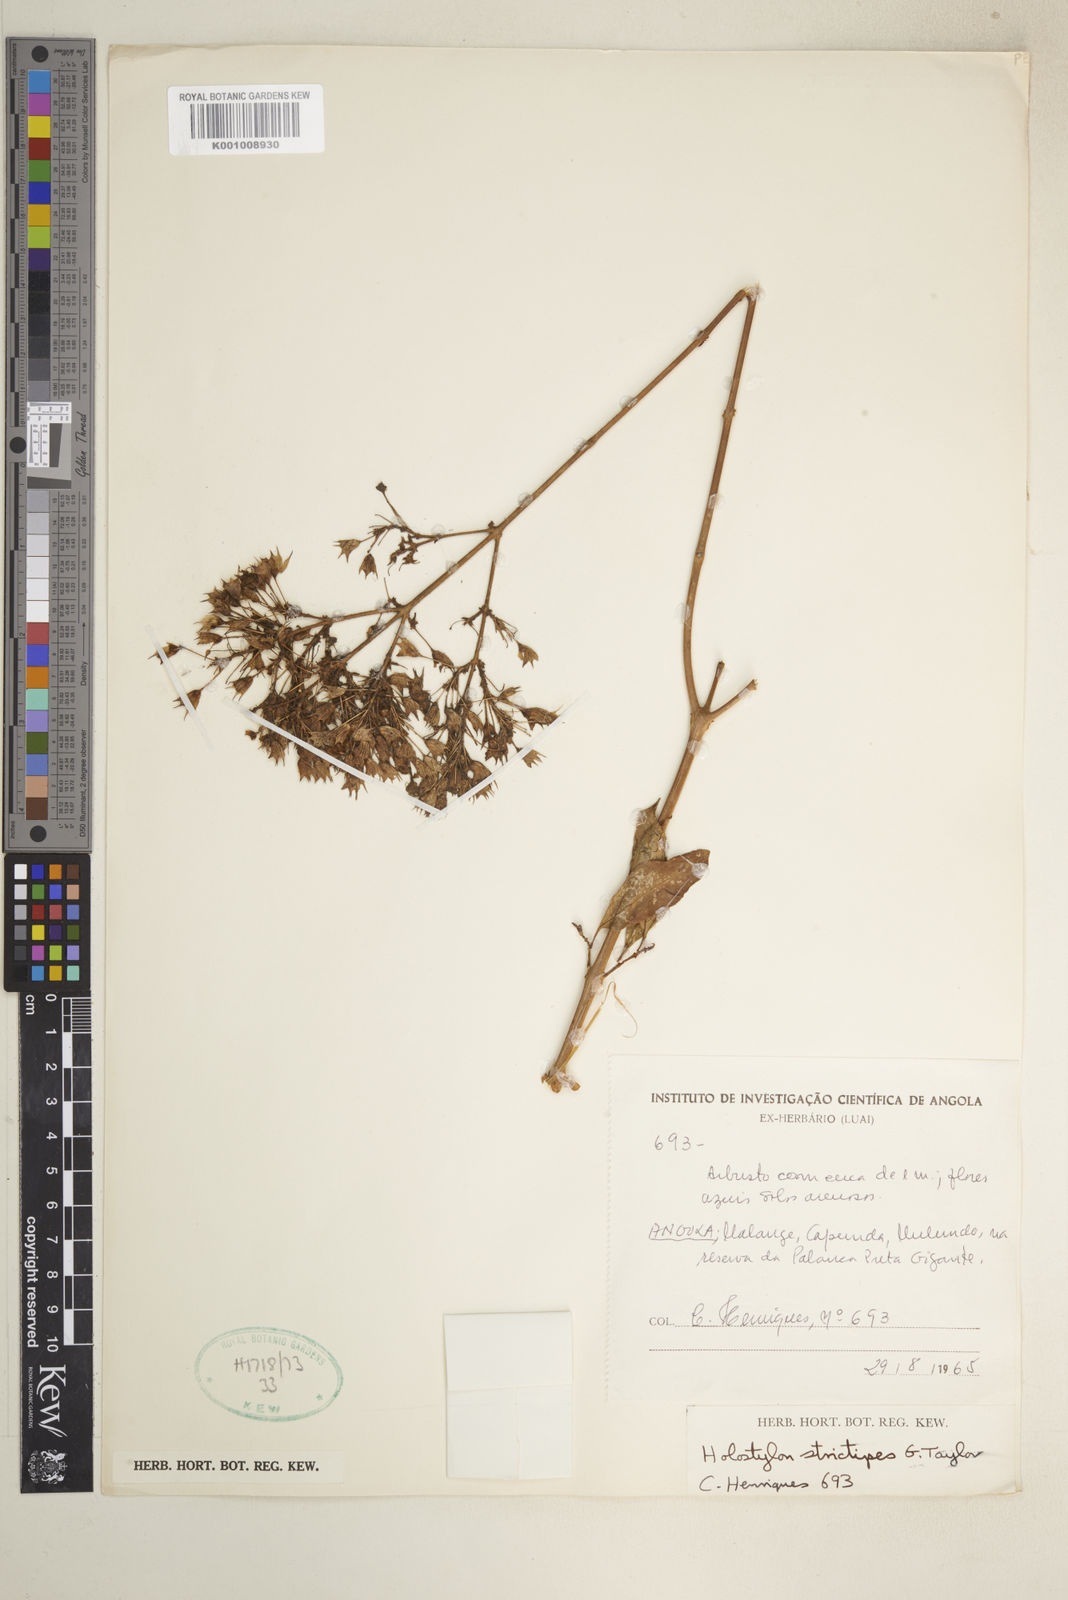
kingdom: Plantae
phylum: Tracheophyta
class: Magnoliopsida
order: Lamiales
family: Lamiaceae
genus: Coleus
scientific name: Coleus strictipes
